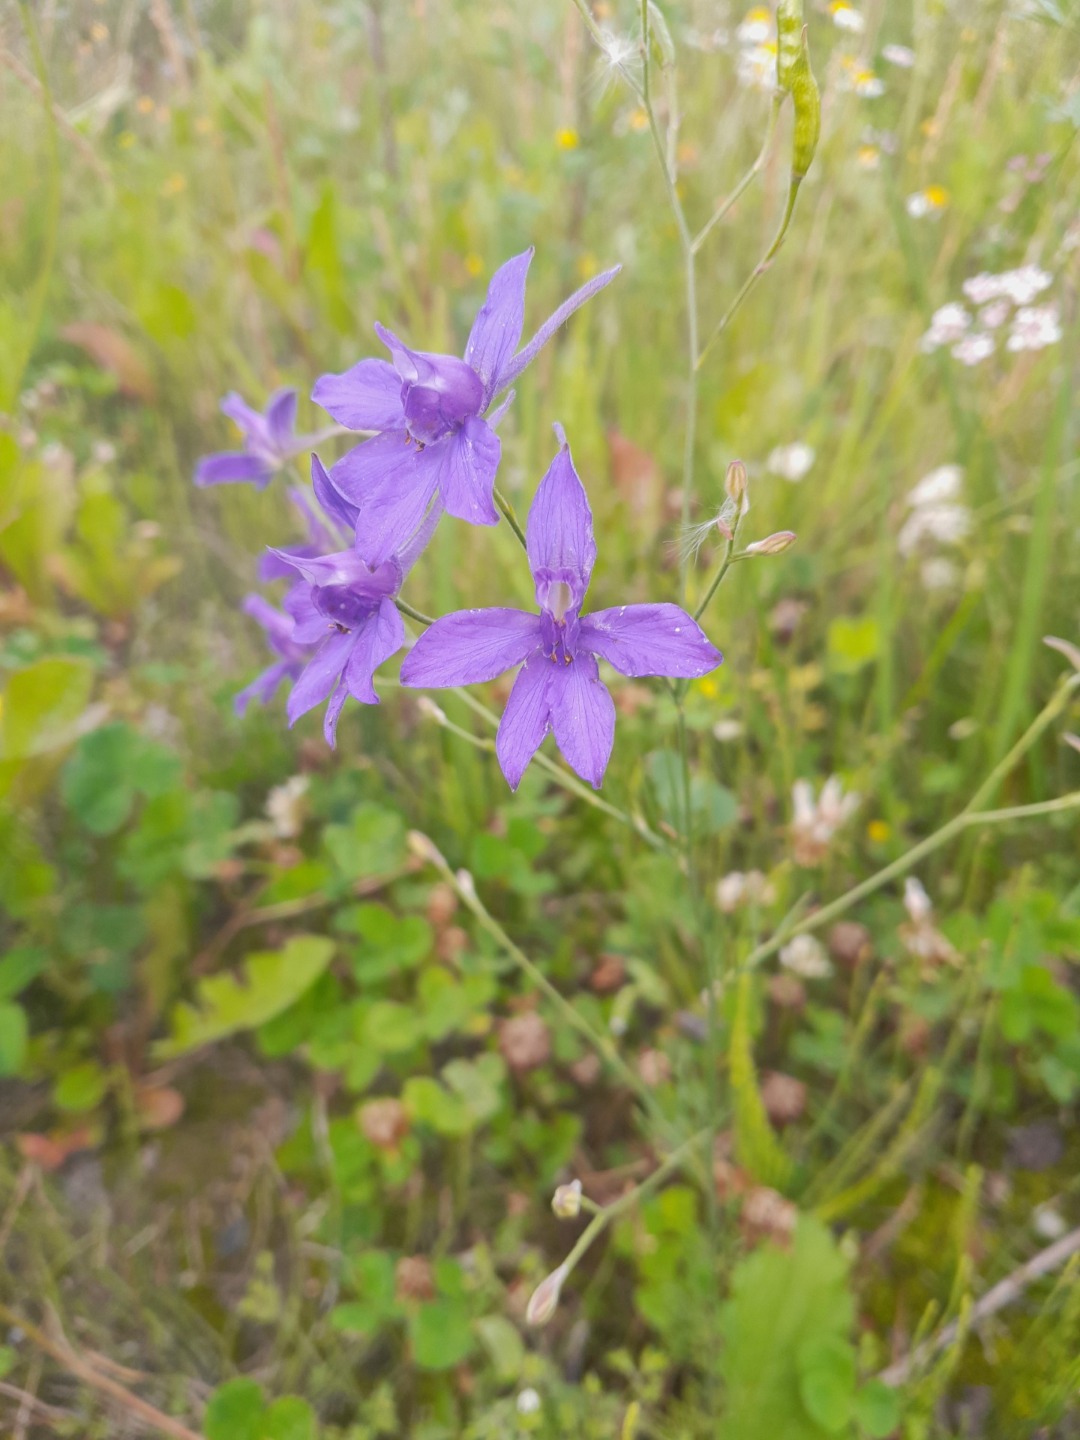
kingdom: Plantae
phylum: Tracheophyta
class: Magnoliopsida
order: Ranunculales
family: Ranunculaceae
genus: Delphinium
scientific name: Delphinium consolida
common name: Korn-ridderspore
